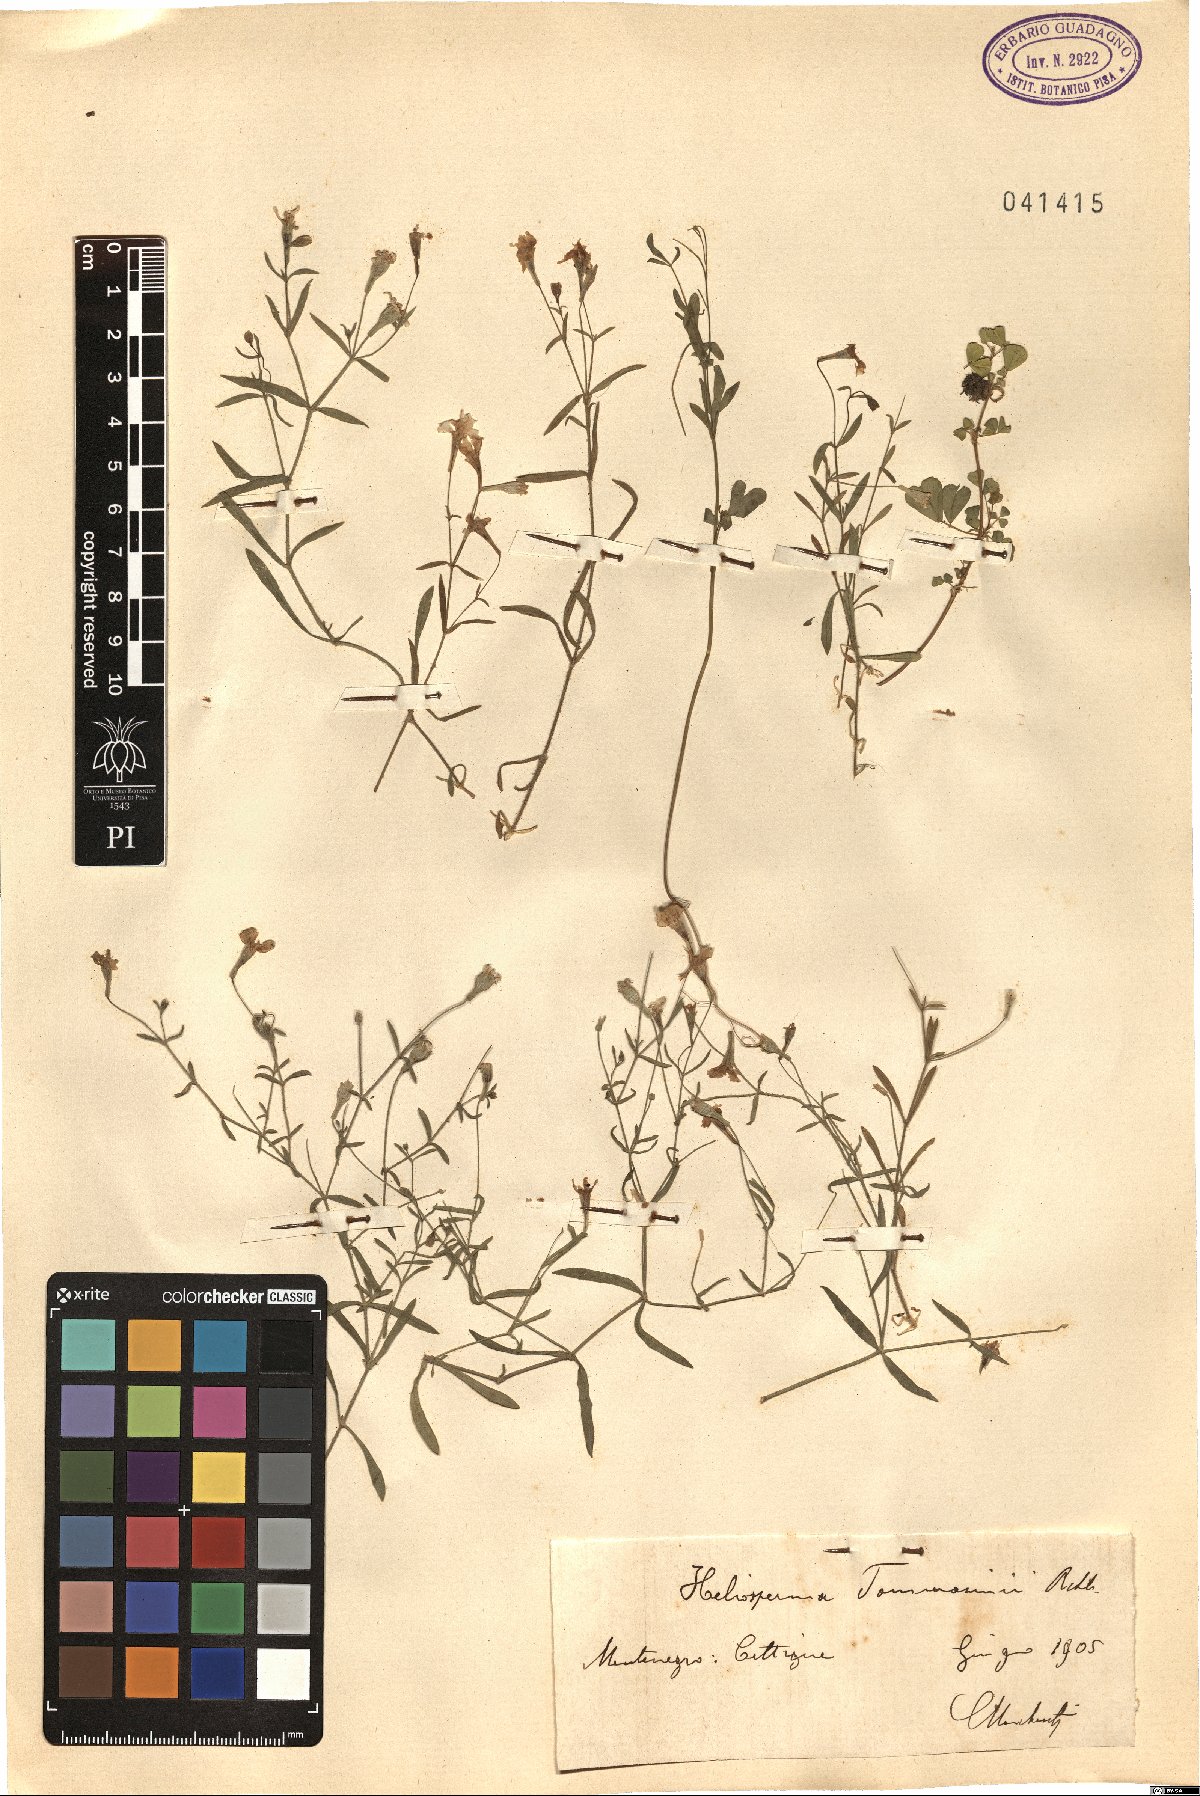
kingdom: Plantae
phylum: Tracheophyta
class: Magnoliopsida
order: Caryophyllales
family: Caryophyllaceae
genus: Heliosperma
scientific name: Heliosperma pusillum
